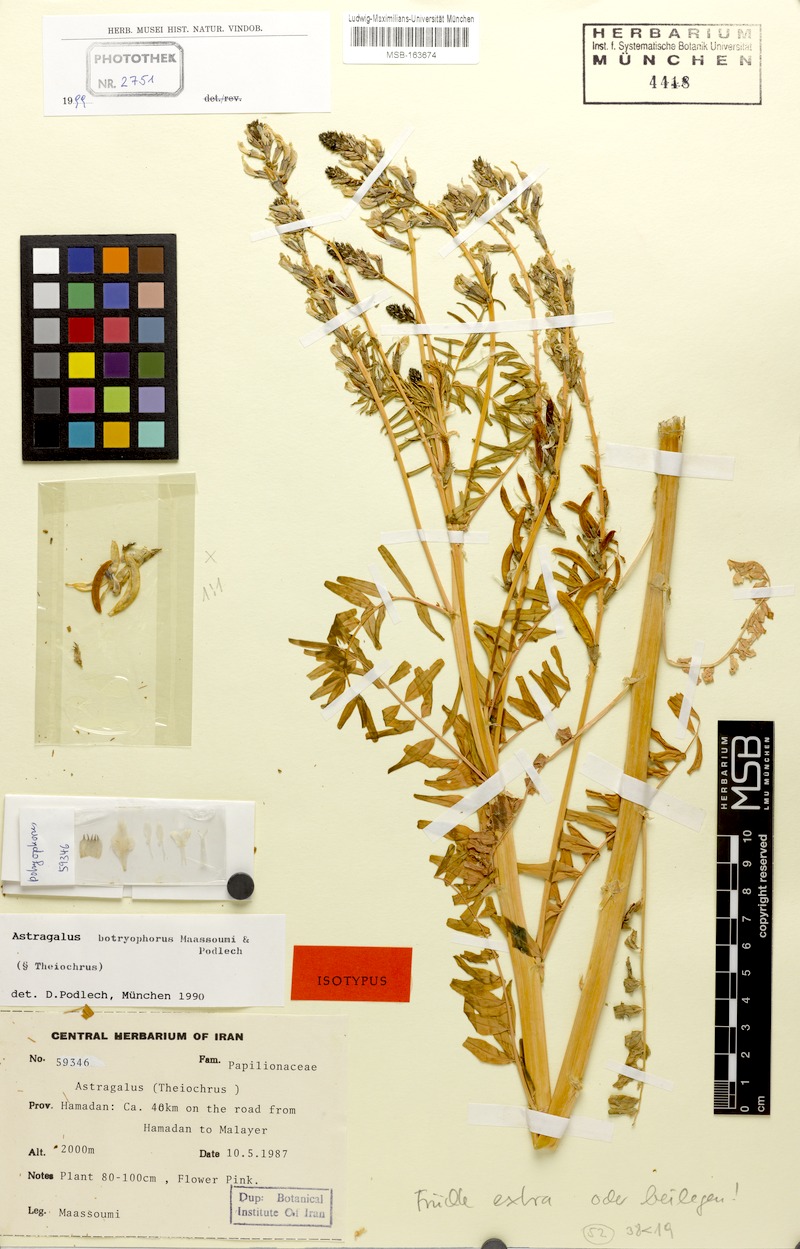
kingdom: Plantae
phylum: Tracheophyta
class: Magnoliopsida
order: Fabales
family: Fabaceae
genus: Astragalus
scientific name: Astragalus botryophorus
